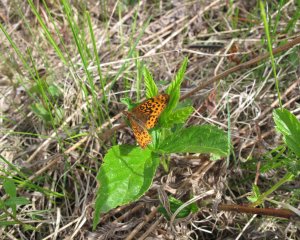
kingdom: Animalia
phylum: Arthropoda
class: Insecta
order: Lepidoptera
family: Nymphalidae
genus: Clossiana
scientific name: Clossiana toddi
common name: Meadow Fritillary
